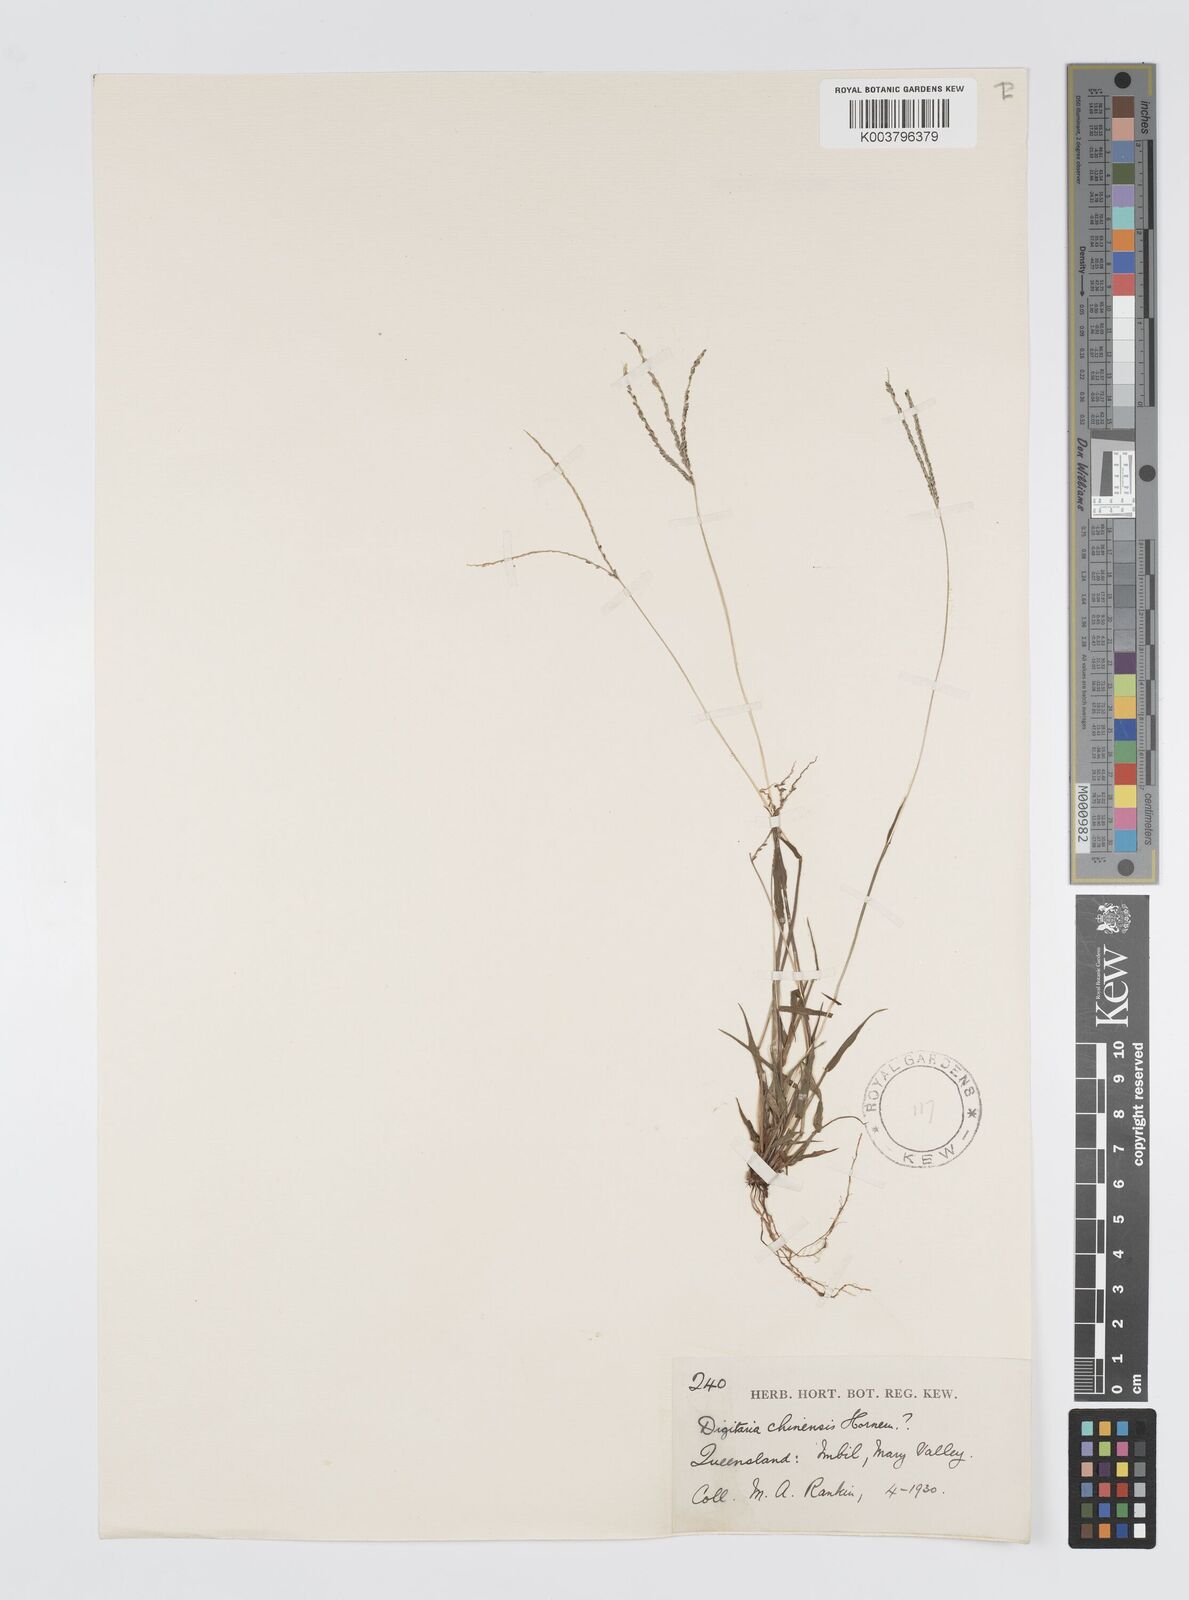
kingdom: Plantae
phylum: Tracheophyta
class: Liliopsida
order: Poales
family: Poaceae
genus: Digitaria
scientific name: Digitaria violascens
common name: Violet crabgrass
